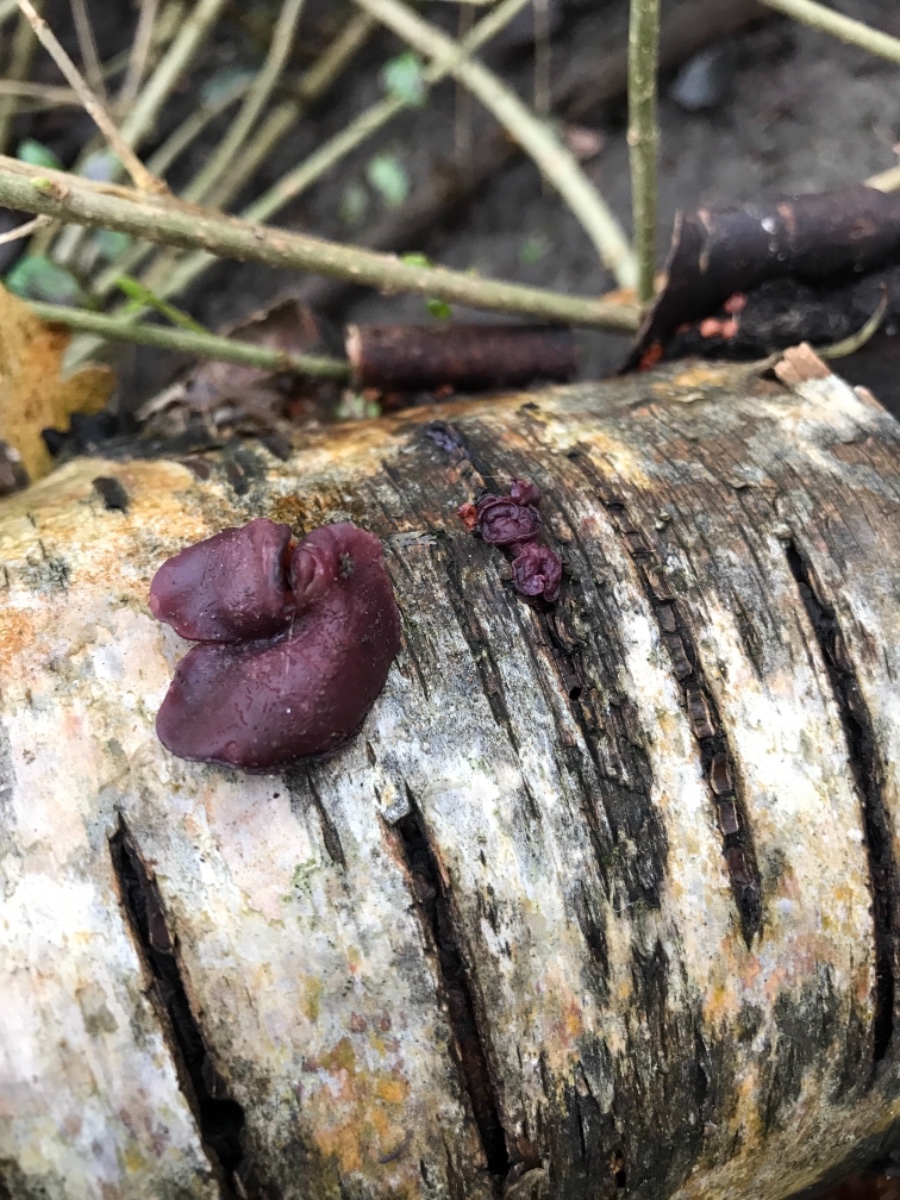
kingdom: Fungi
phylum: Ascomycota
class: Leotiomycetes
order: Helotiales
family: Gelatinodiscaceae
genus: Ascocoryne
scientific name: Ascocoryne cylichnium
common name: stor sejskive
